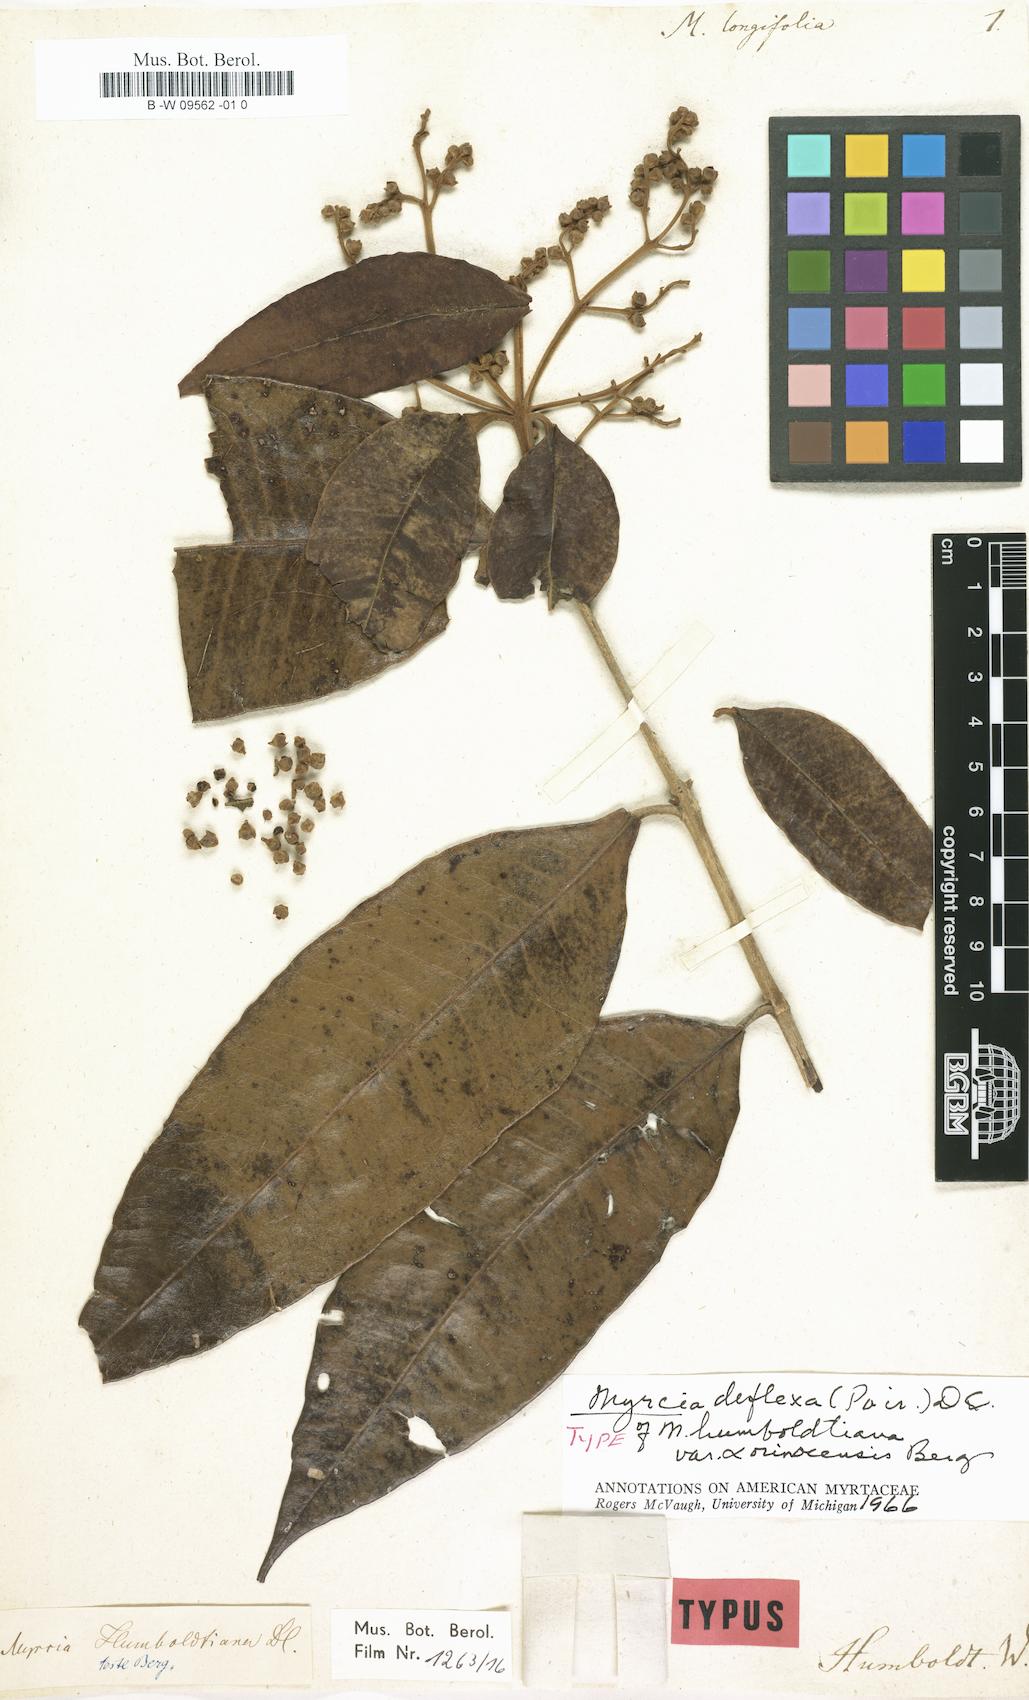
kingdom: Plantae
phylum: Tracheophyta
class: Magnoliopsida
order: Myrtales
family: Myrtaceae
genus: Myrtus
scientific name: Myrtus longifolia
